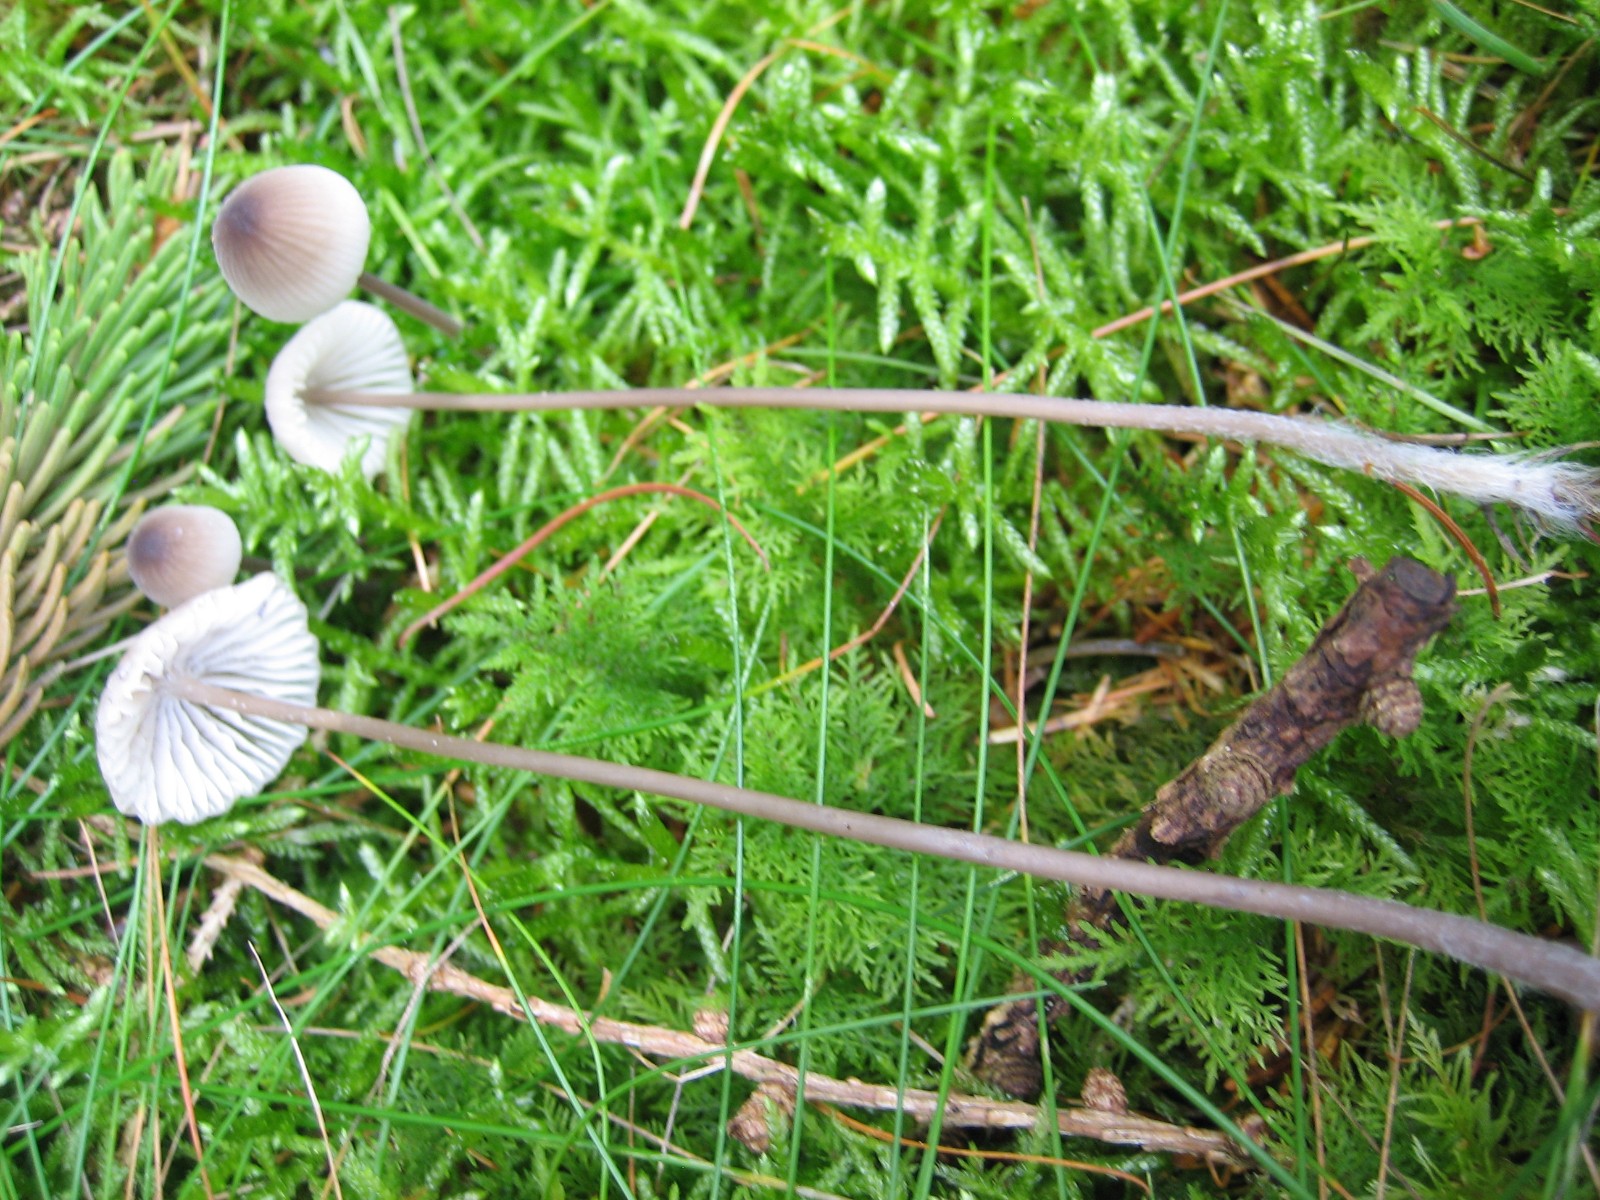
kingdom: Fungi
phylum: Basidiomycota
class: Agaricomycetes
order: Agaricales
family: Mycenaceae
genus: Mycena
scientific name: Mycena galopus
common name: hvidmælket huesvamp
